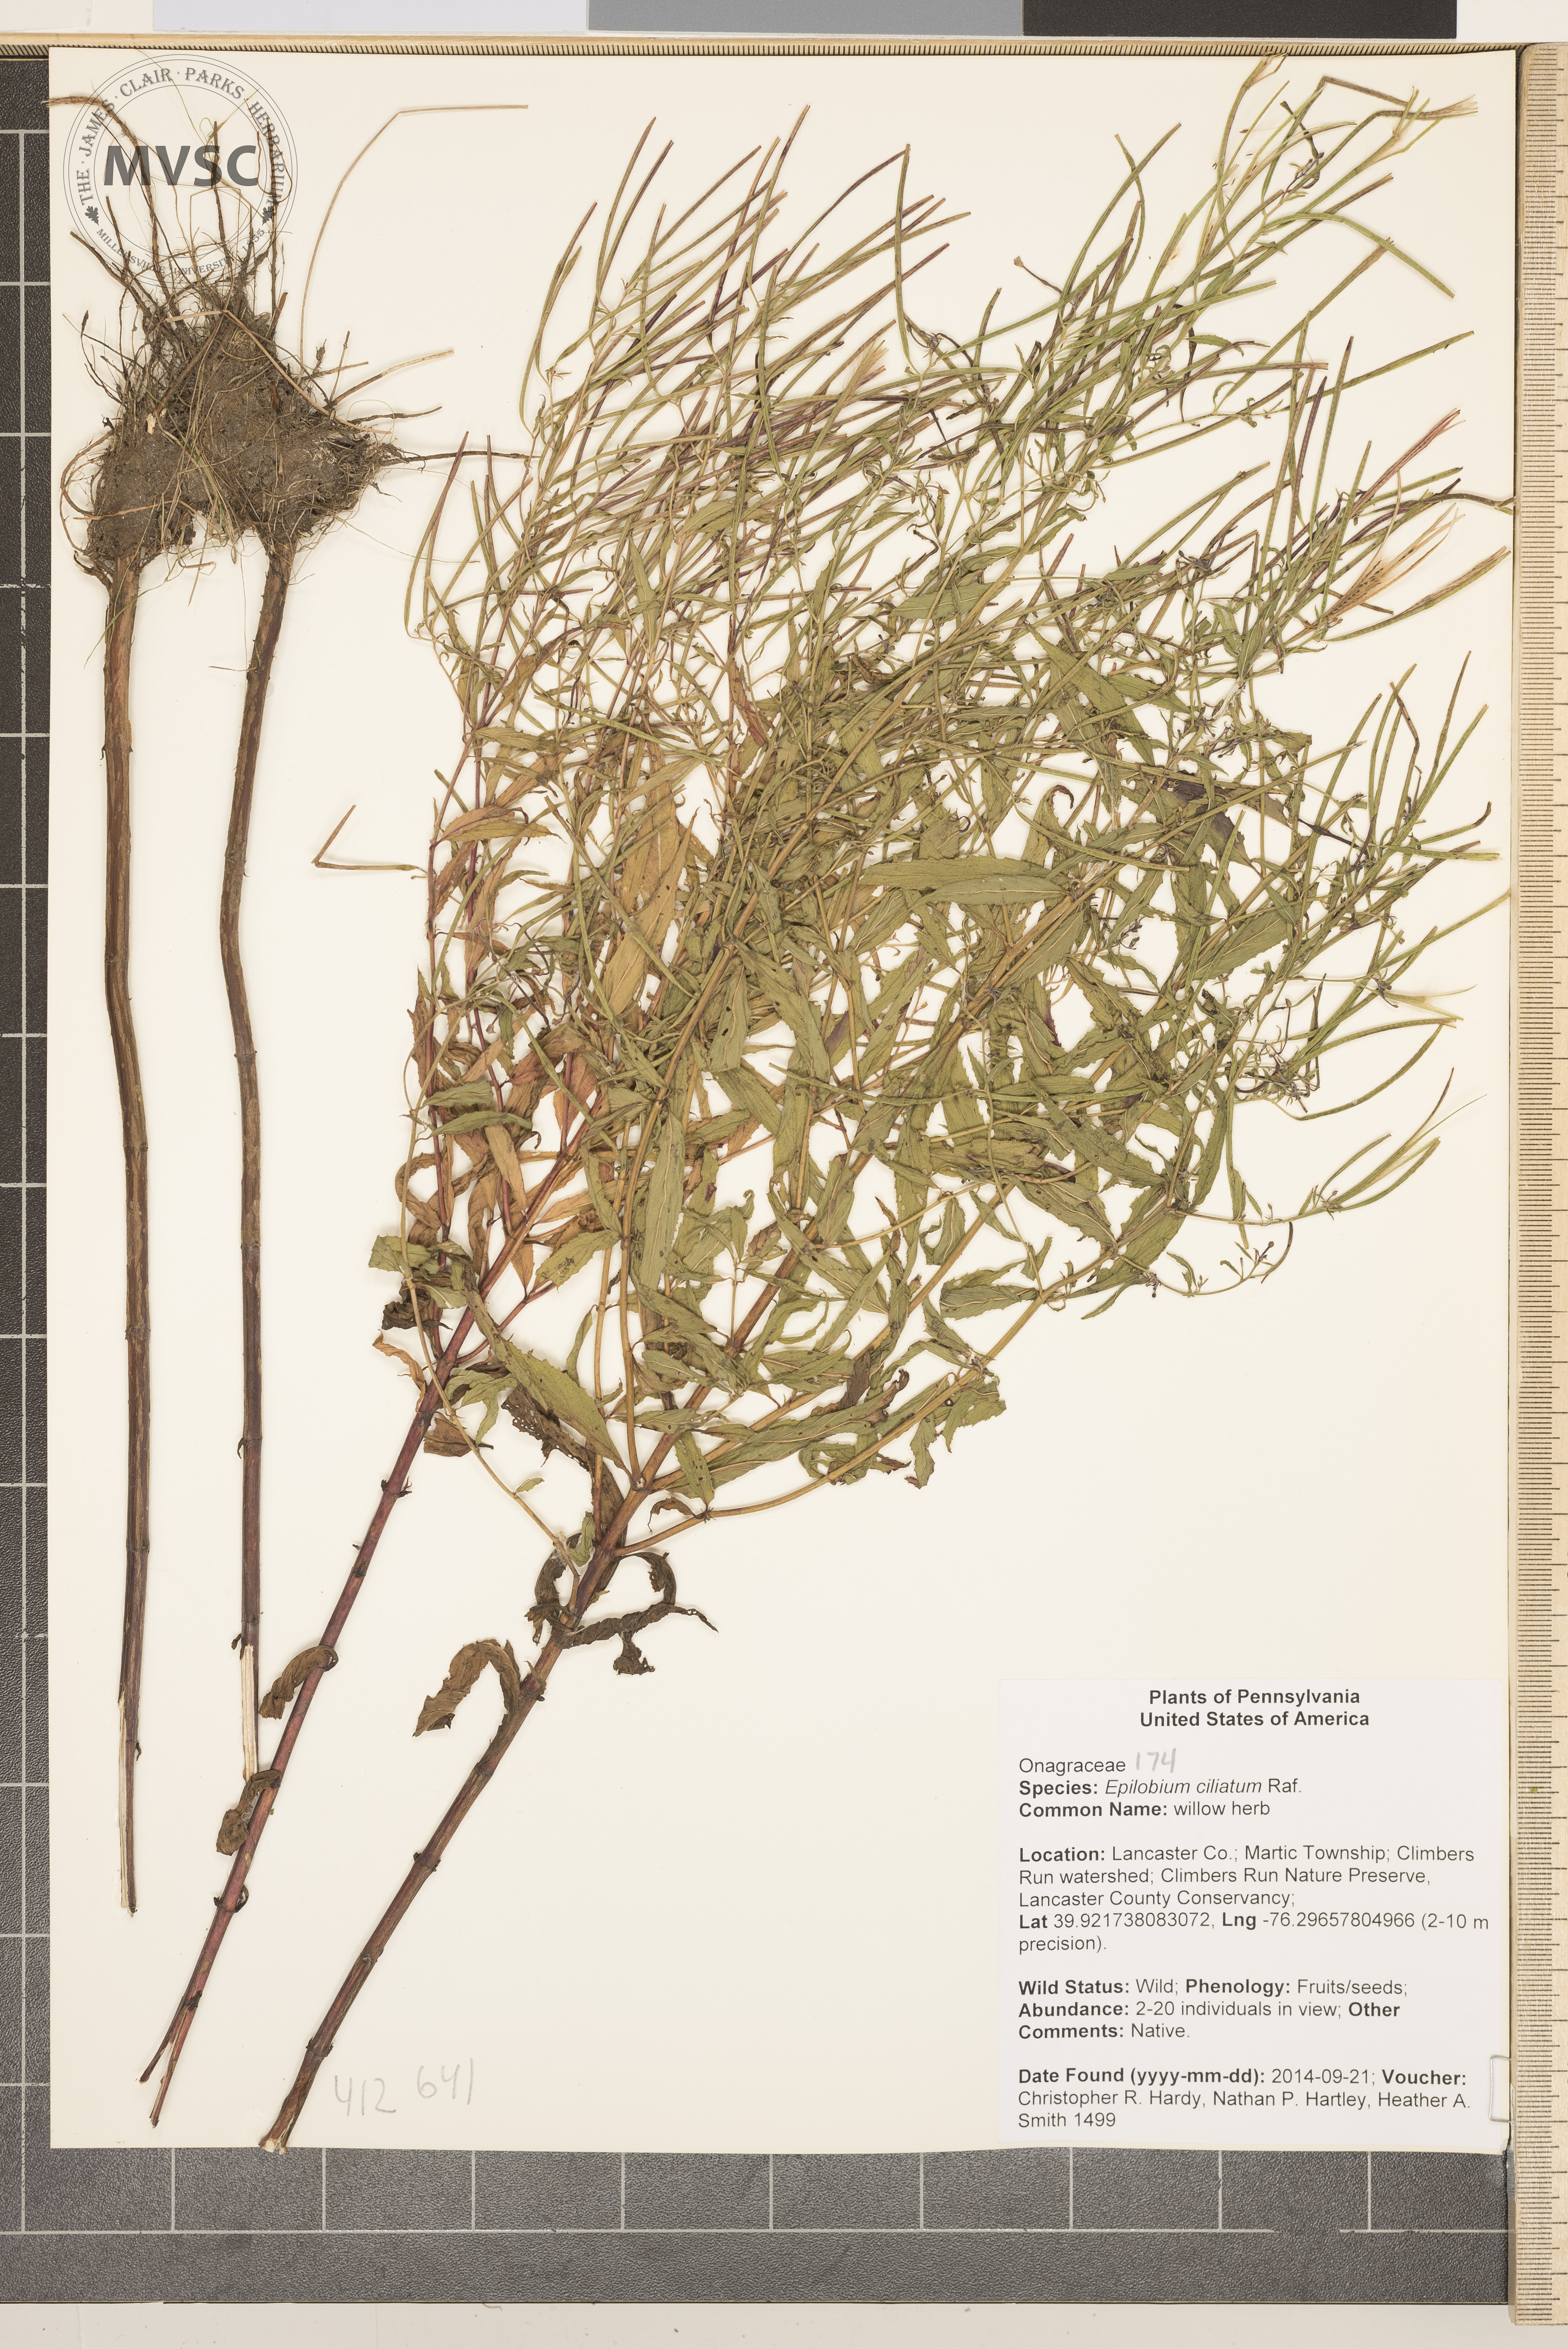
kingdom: Plantae
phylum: Tracheophyta
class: Magnoliopsida
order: Myrtales
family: Onagraceae
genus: Epilobium
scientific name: Epilobium coloratum
